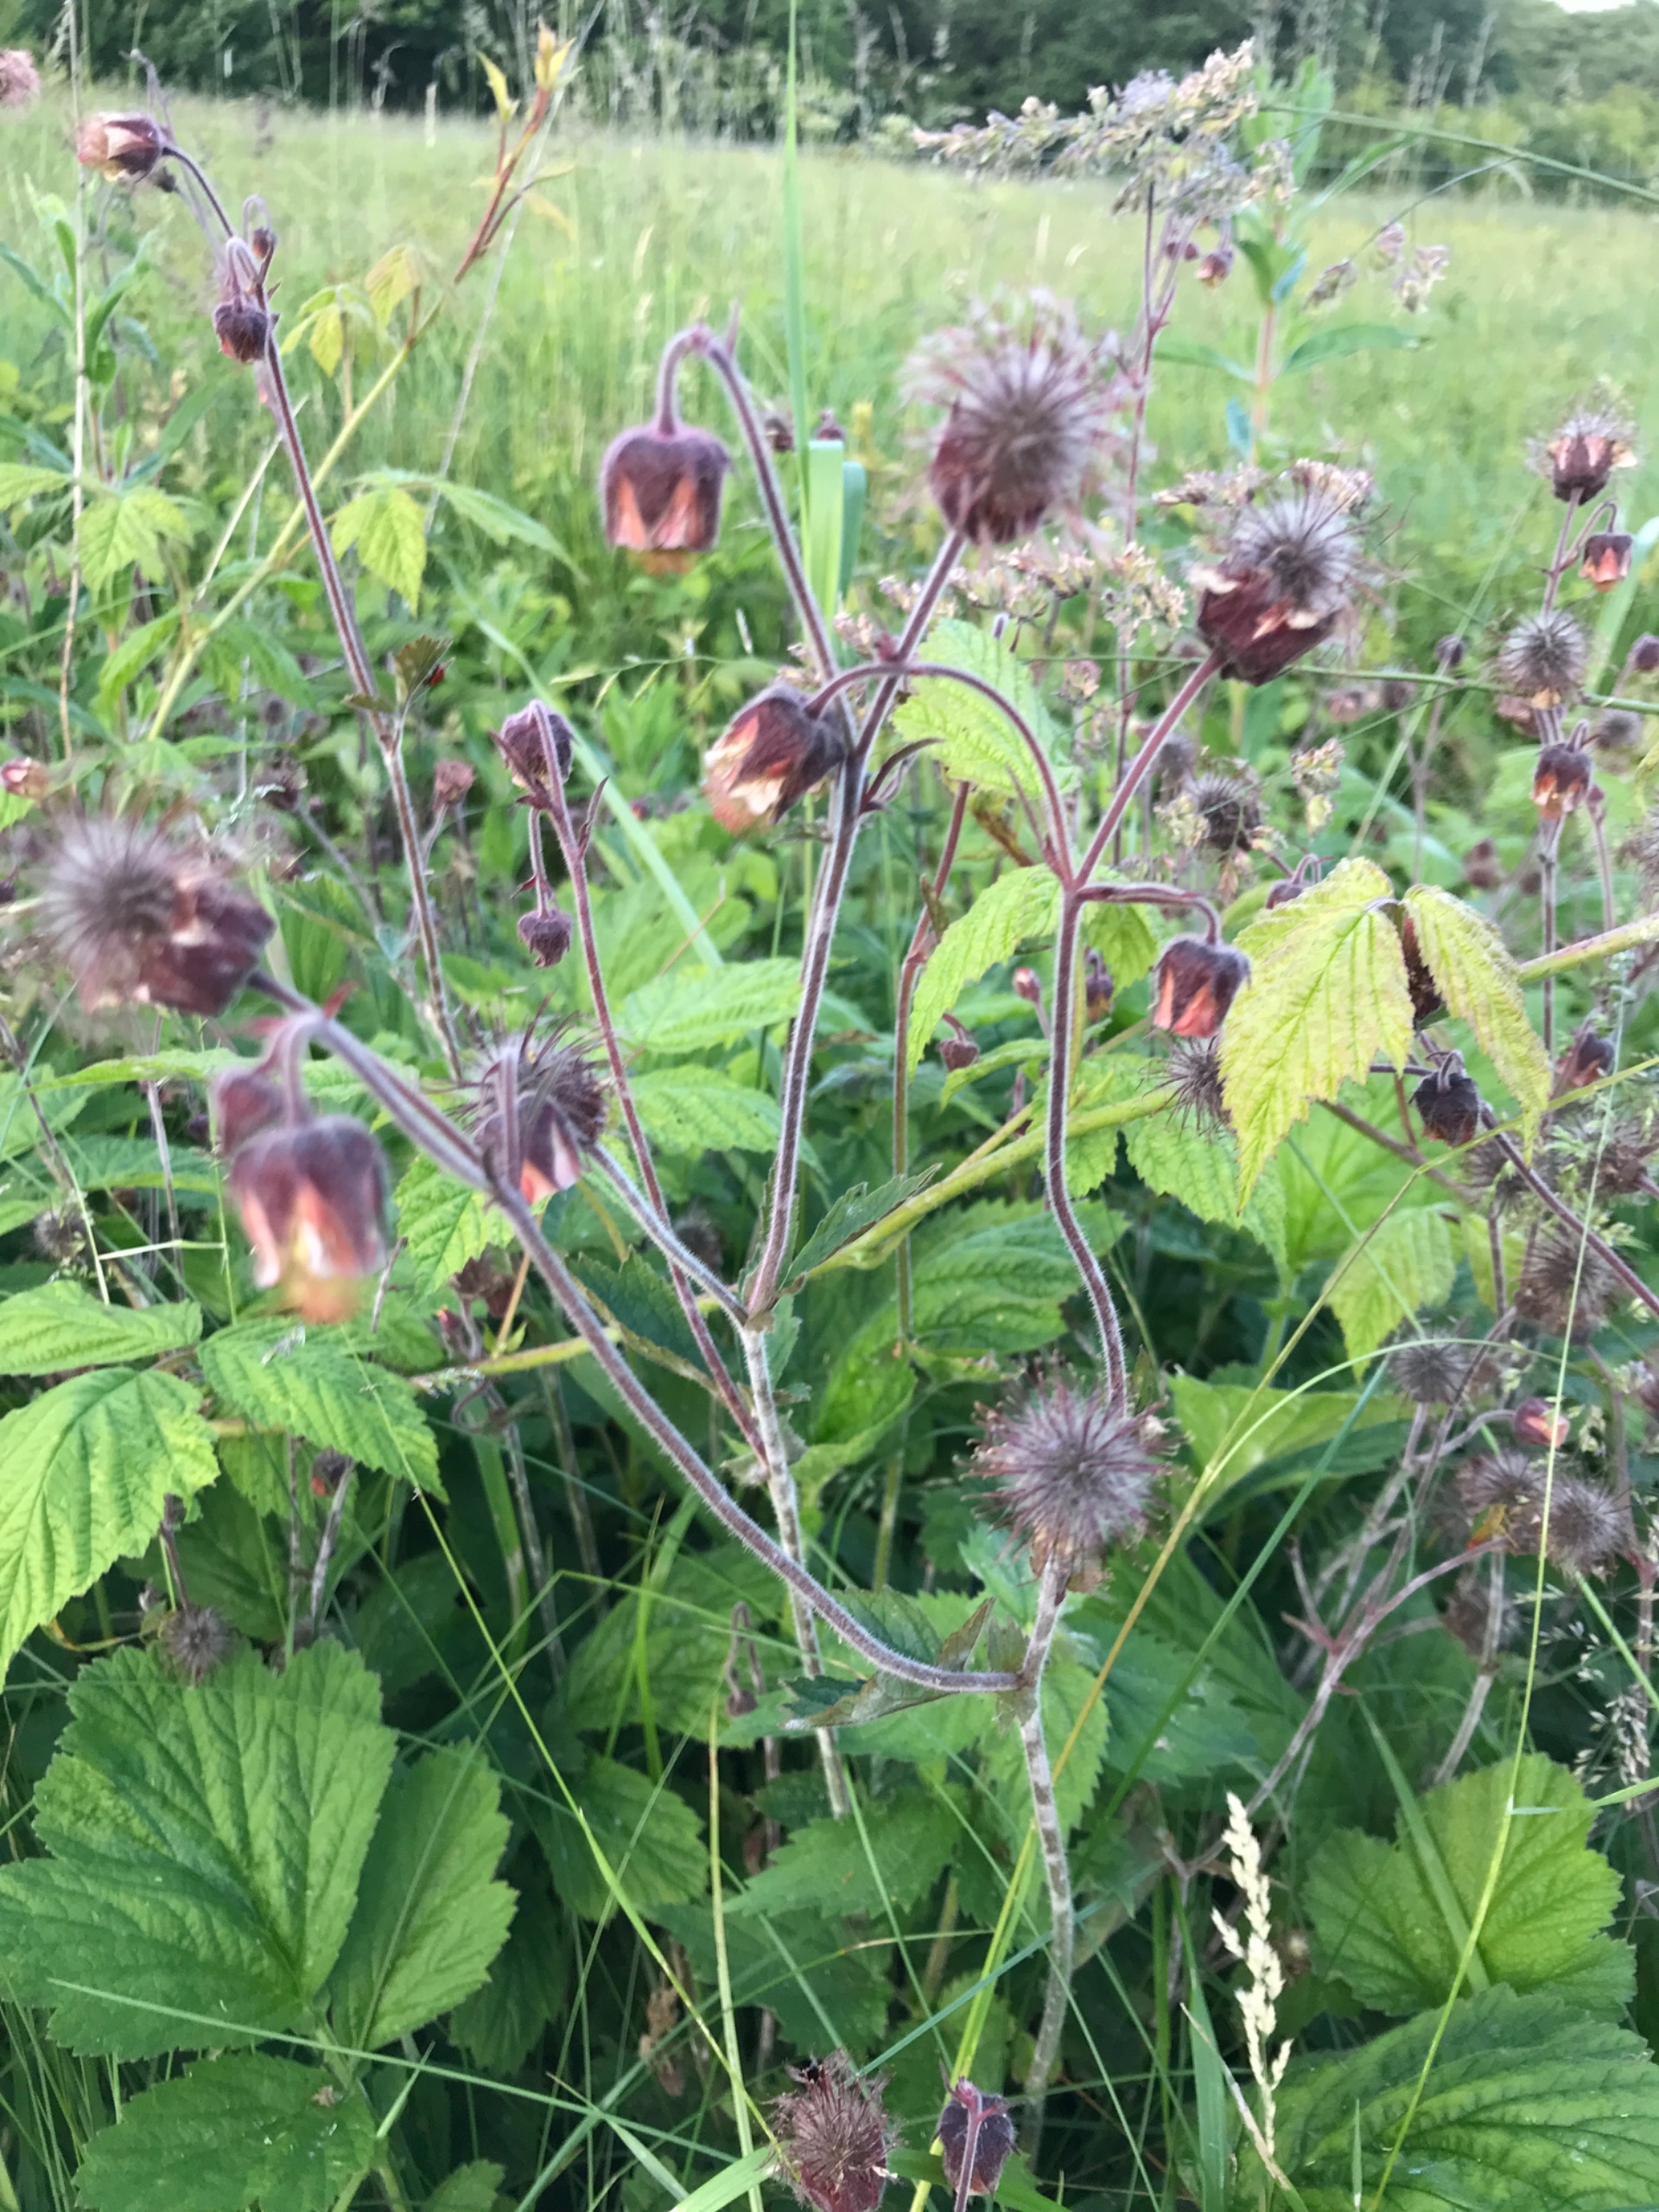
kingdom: Plantae
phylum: Tracheophyta
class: Magnoliopsida
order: Rosales
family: Rosaceae
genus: Geum
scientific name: Geum rivale
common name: Eng-nellikerod
